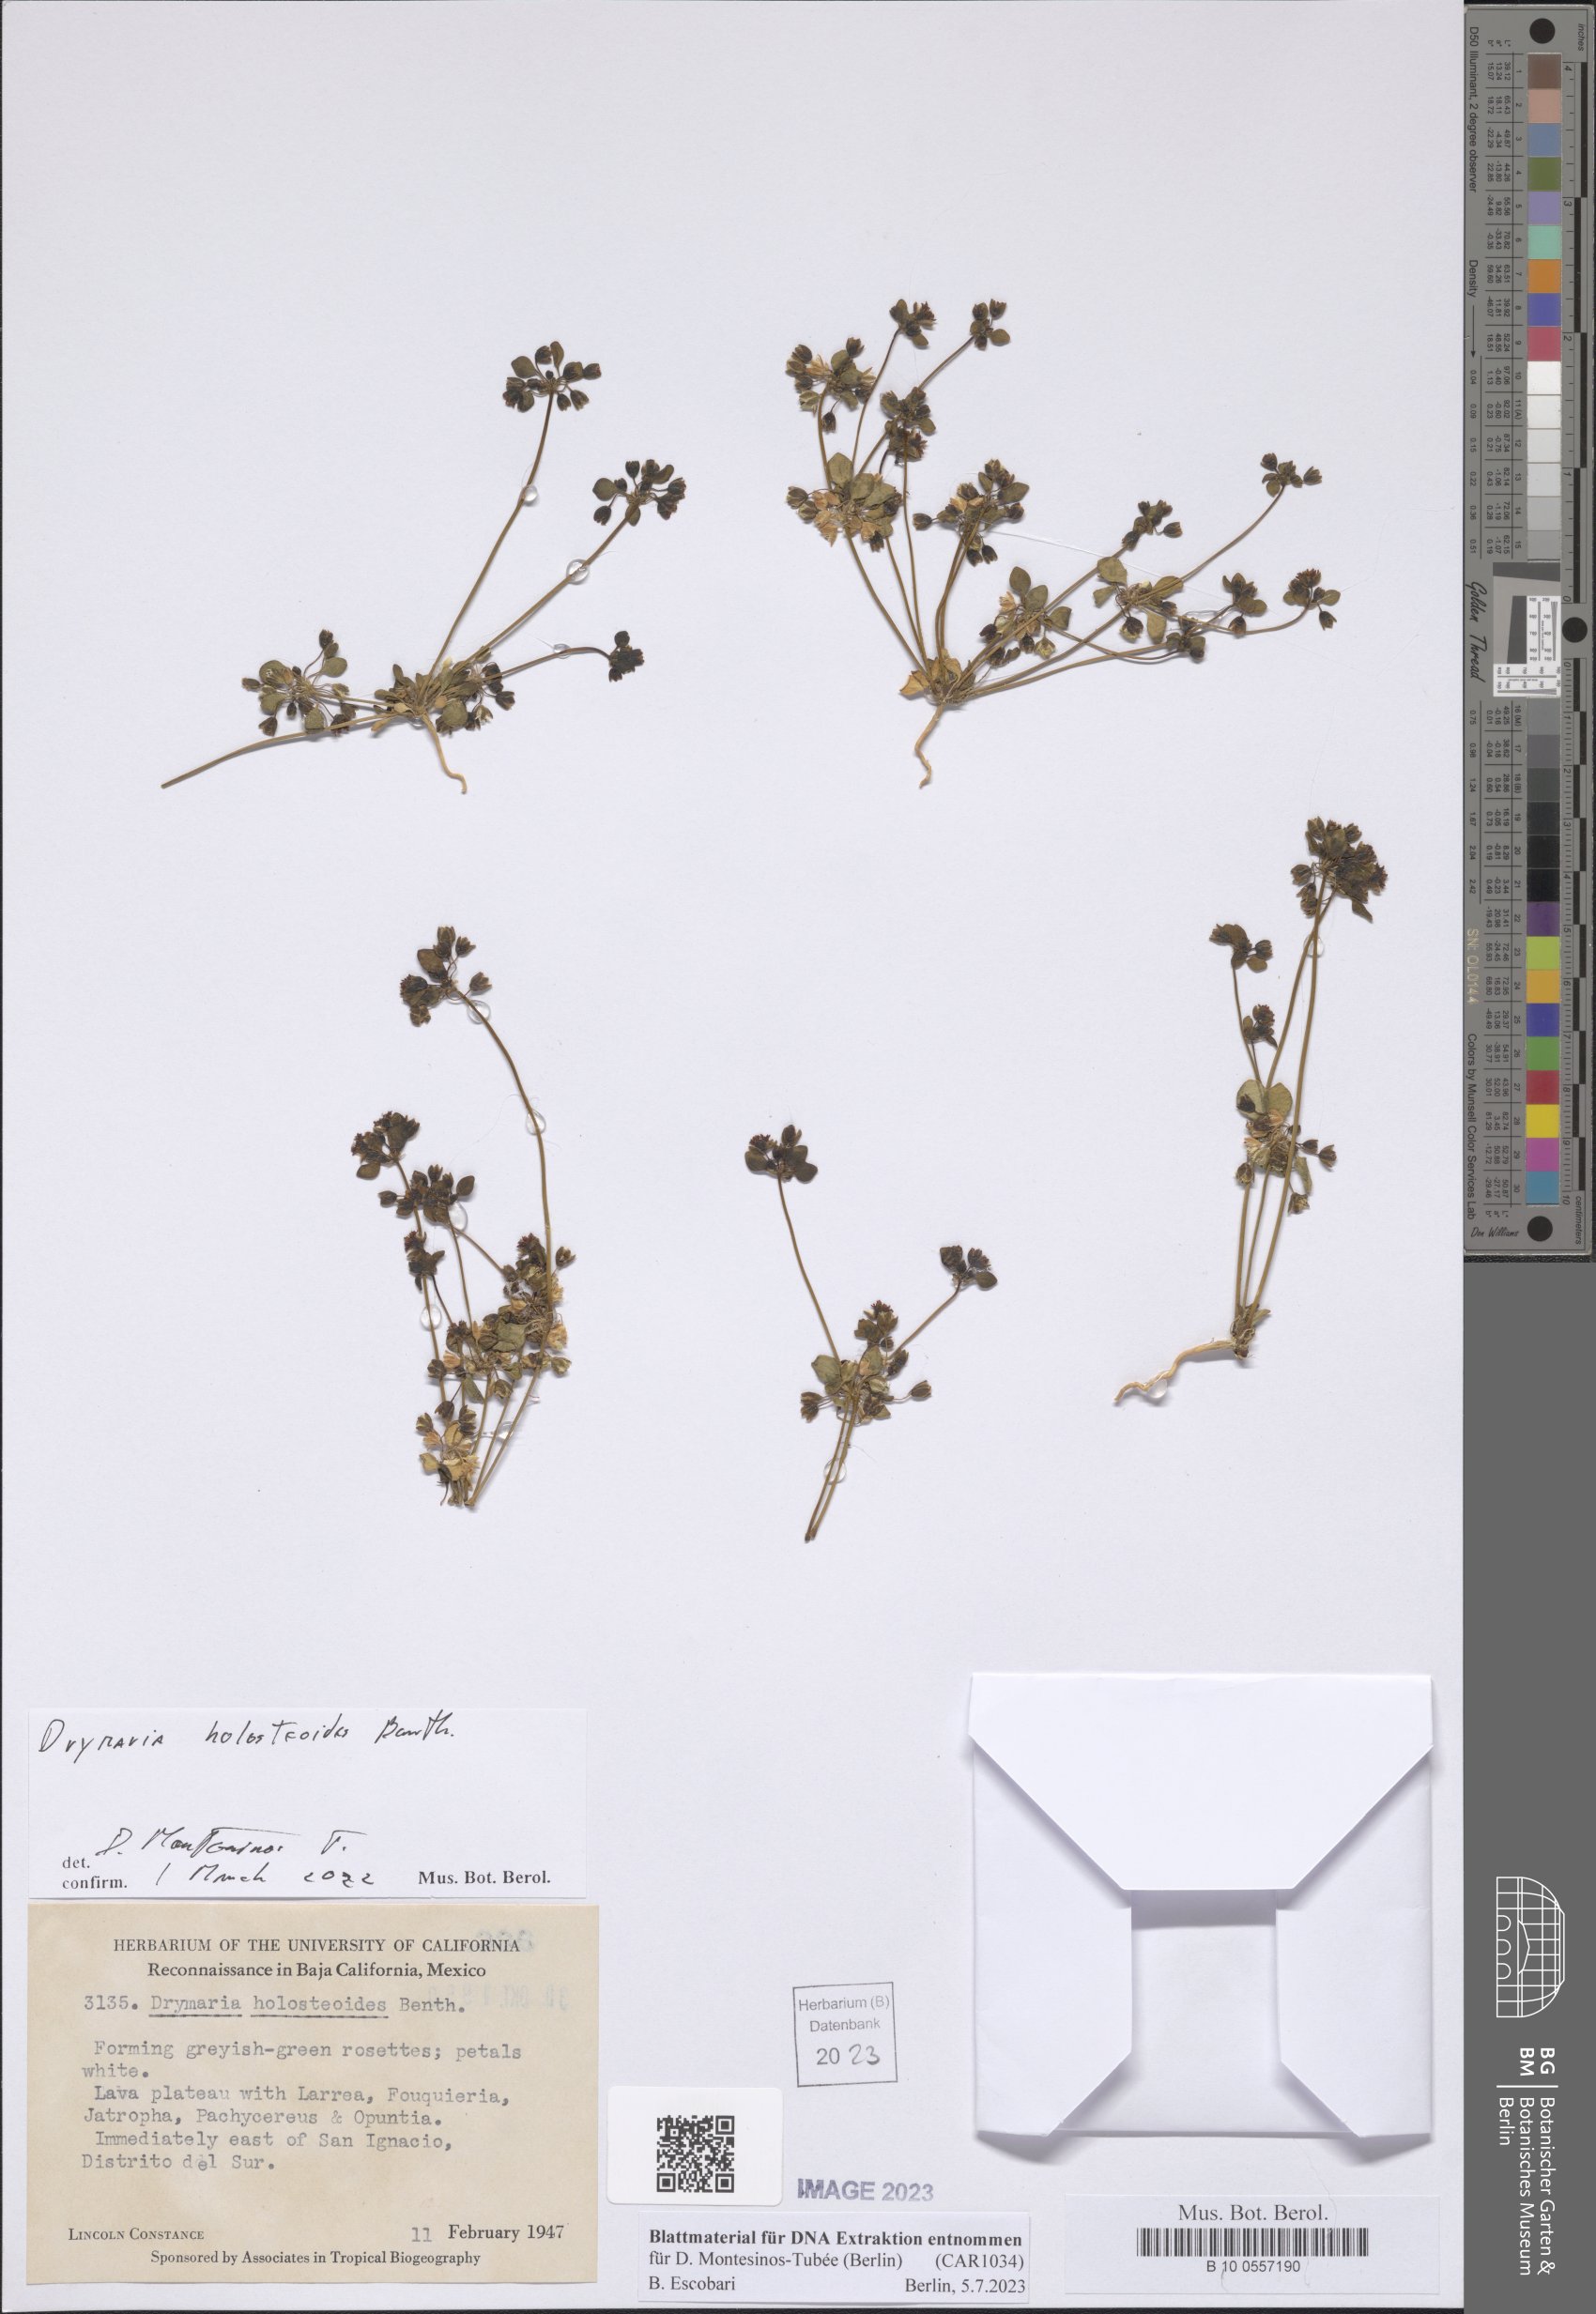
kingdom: Plantae
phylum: Tracheophyta
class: Magnoliopsida
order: Caryophyllales
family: Caryophyllaceae
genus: Drymaria
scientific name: Drymaria holosteoides
